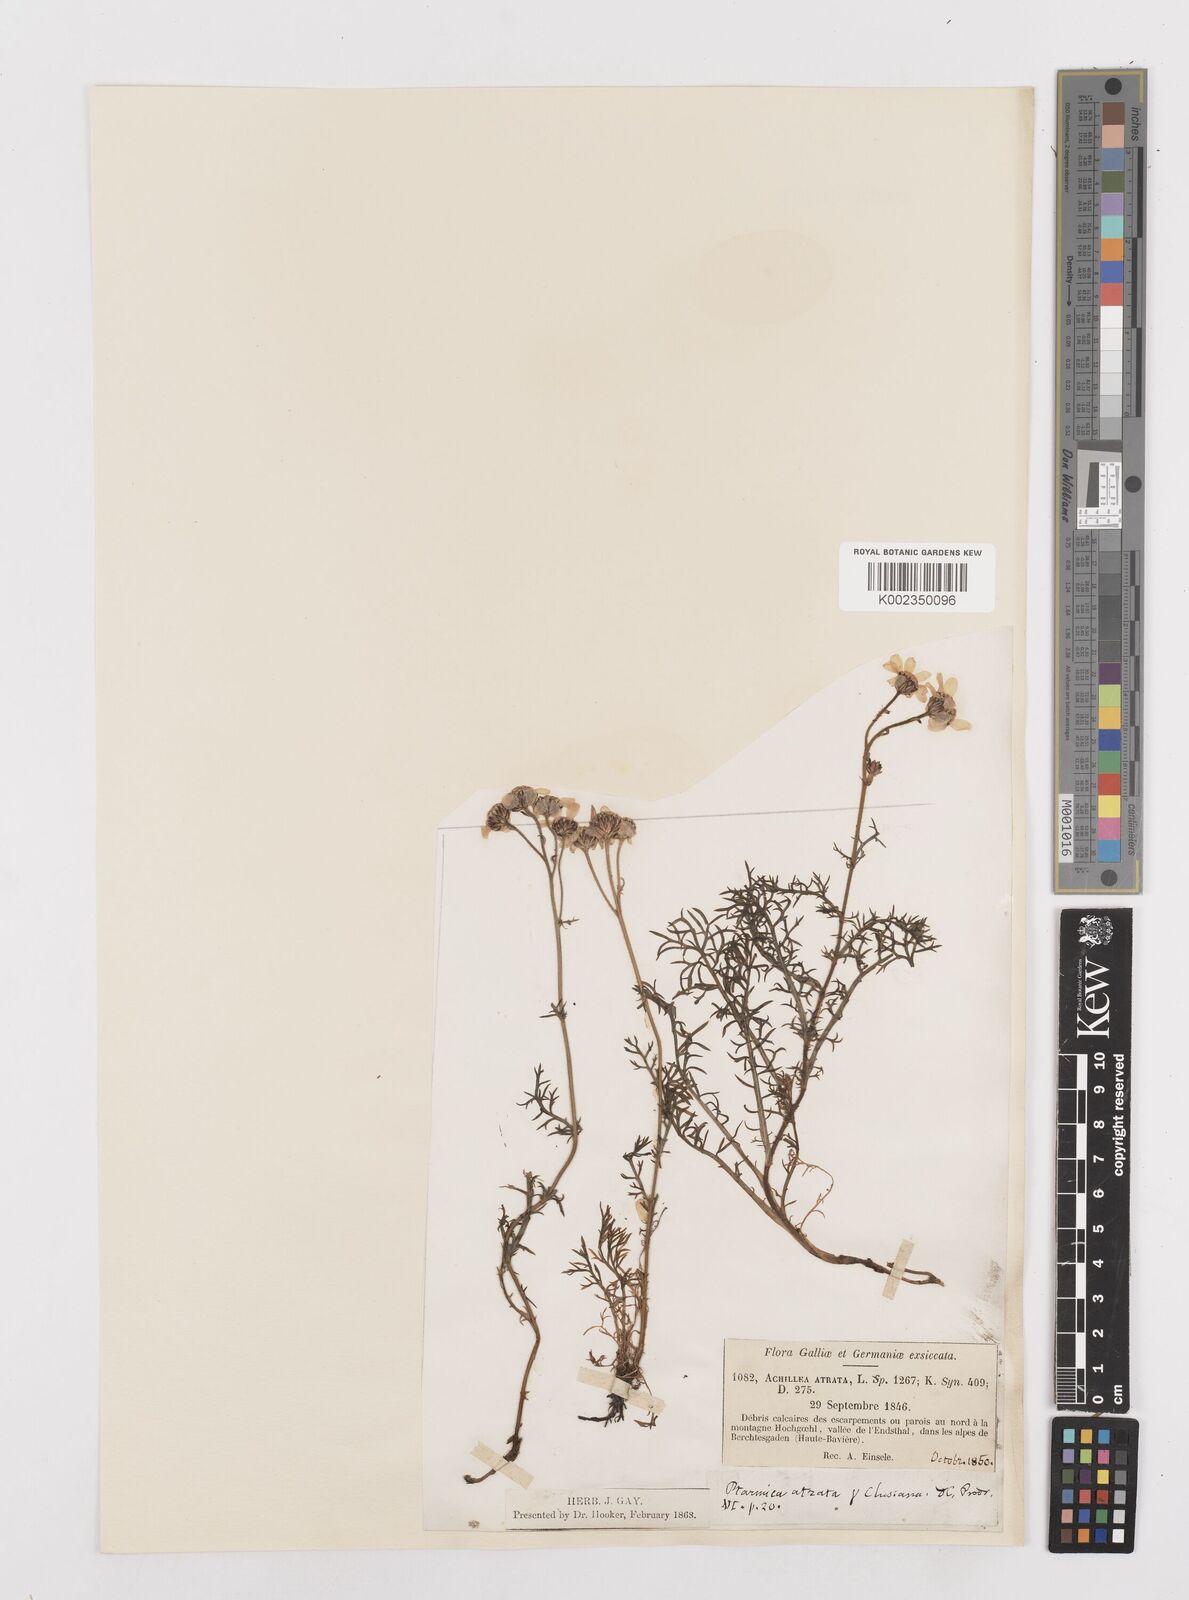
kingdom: Plantae
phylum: Tracheophyta
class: Magnoliopsida
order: Asterales
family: Asteraceae
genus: Achillea
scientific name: Achillea atrata
